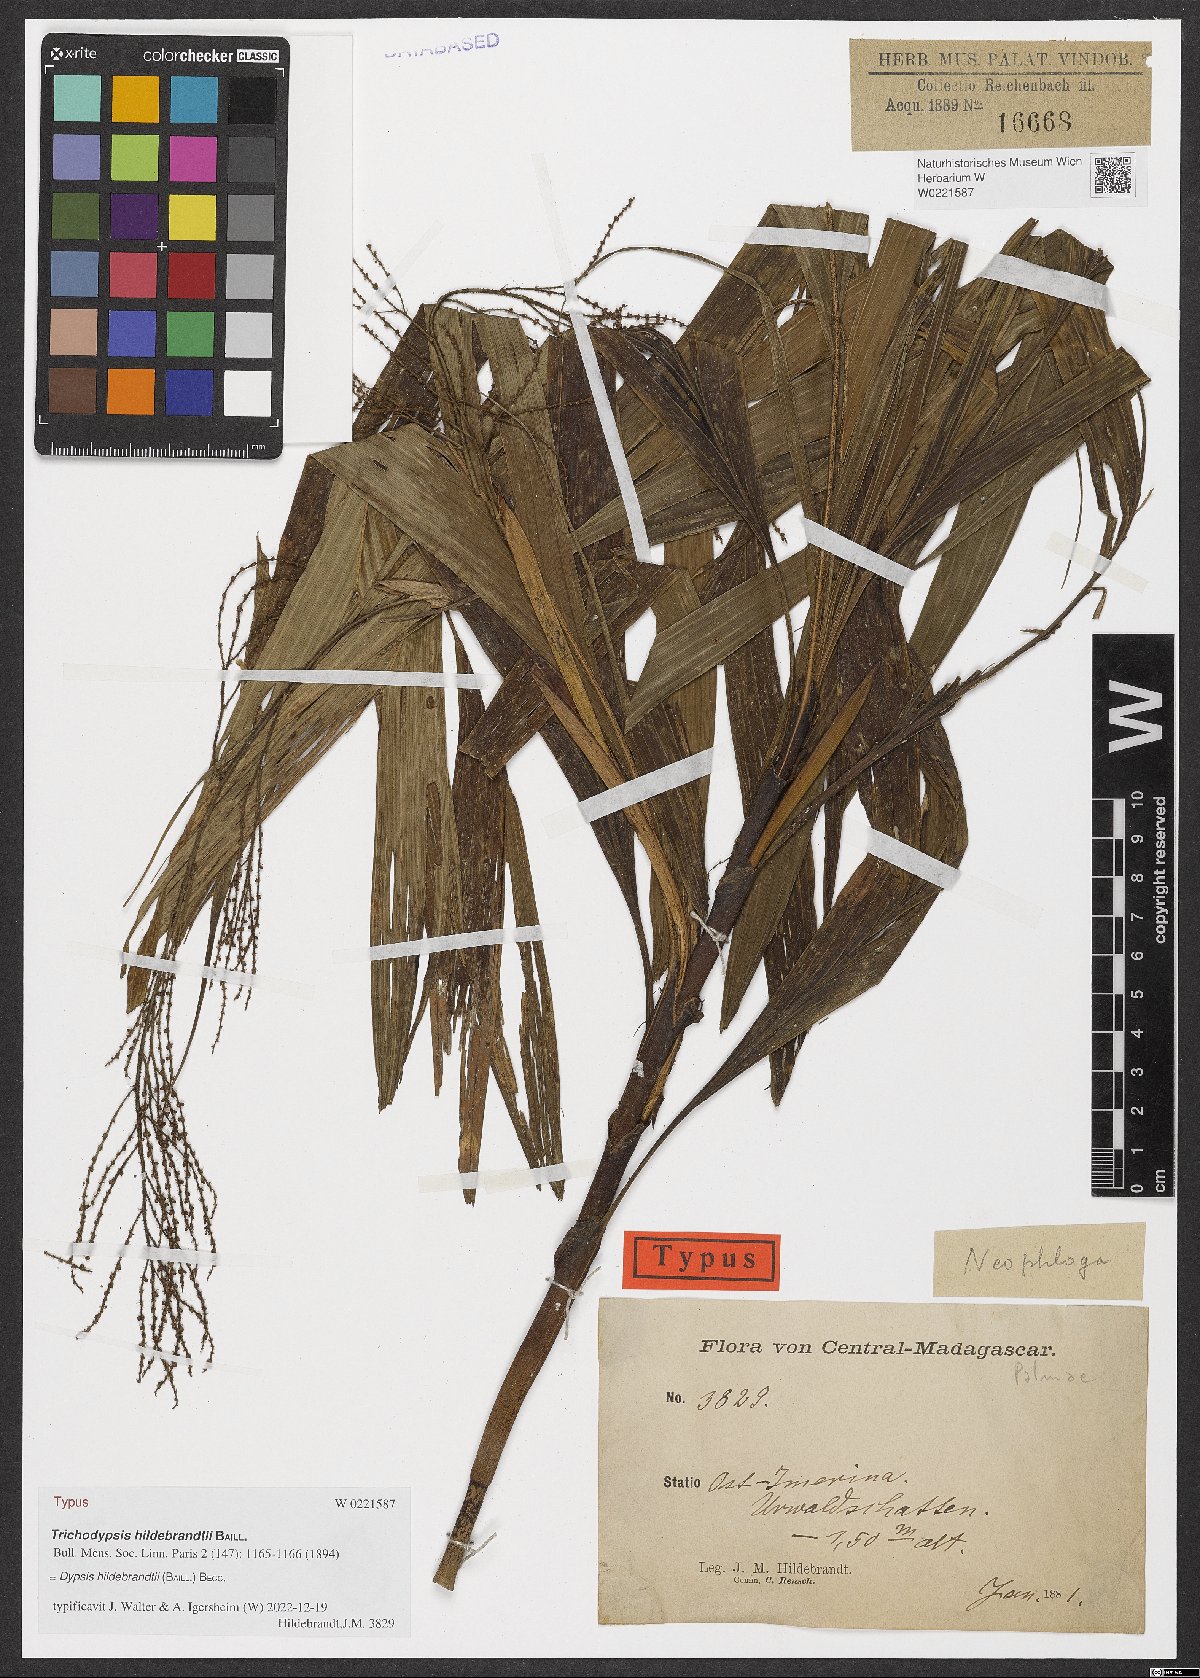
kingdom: Plantae
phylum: Tracheophyta
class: Liliopsida
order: Arecales
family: Arecaceae
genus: Dypsis
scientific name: Dypsis hildebrandtii
